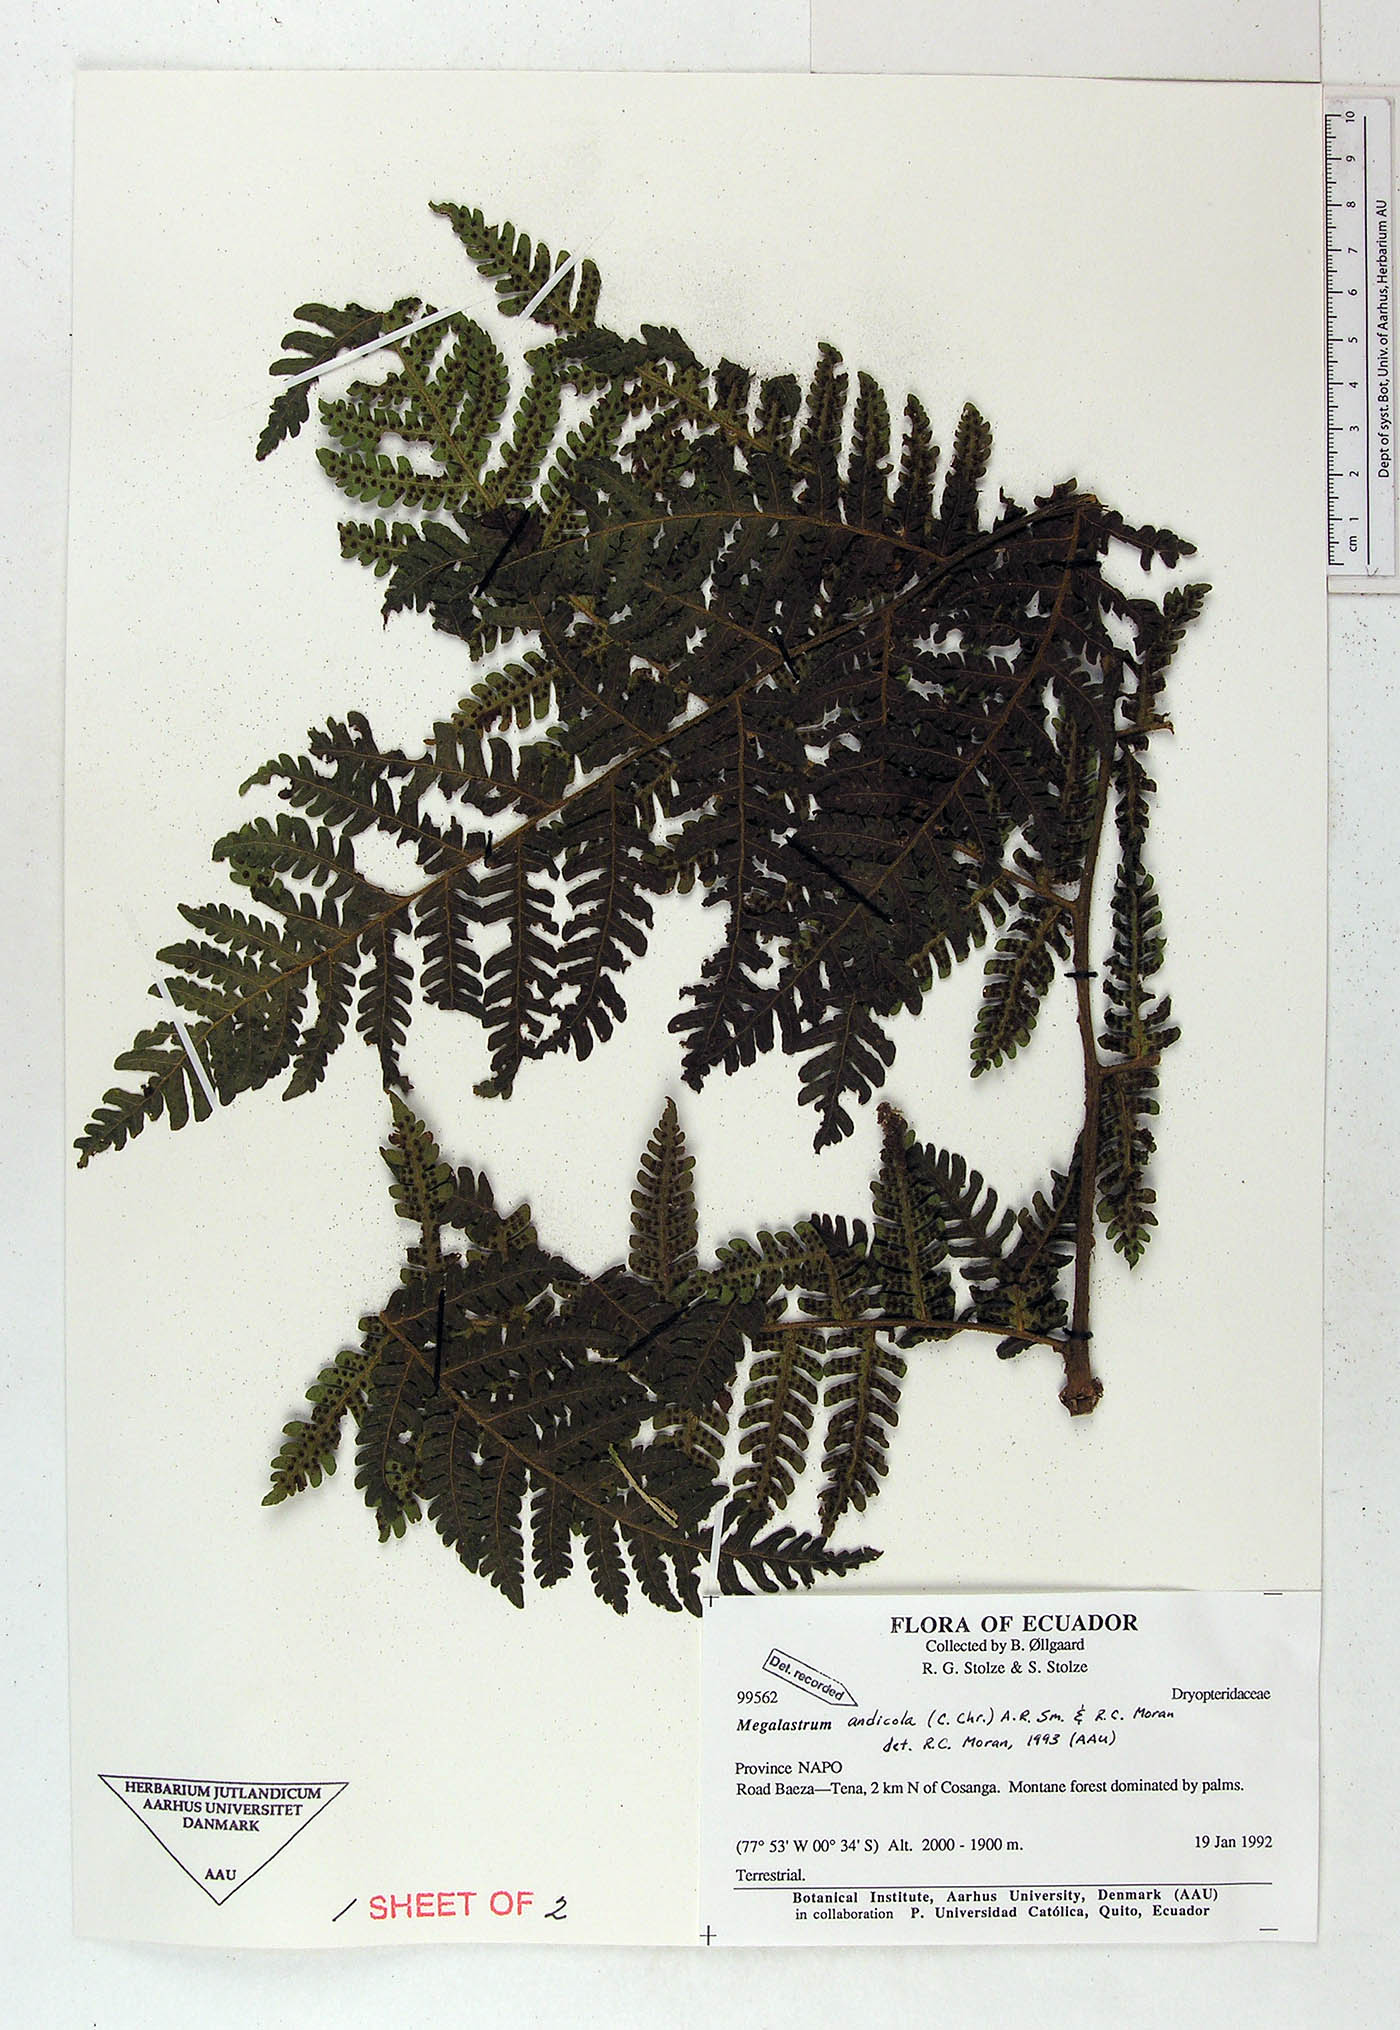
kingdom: Plantae
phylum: Tracheophyta
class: Polypodiopsida
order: Polypodiales
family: Dryopteridaceae
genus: Megalastrum
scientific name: Megalastrum acrosorum
